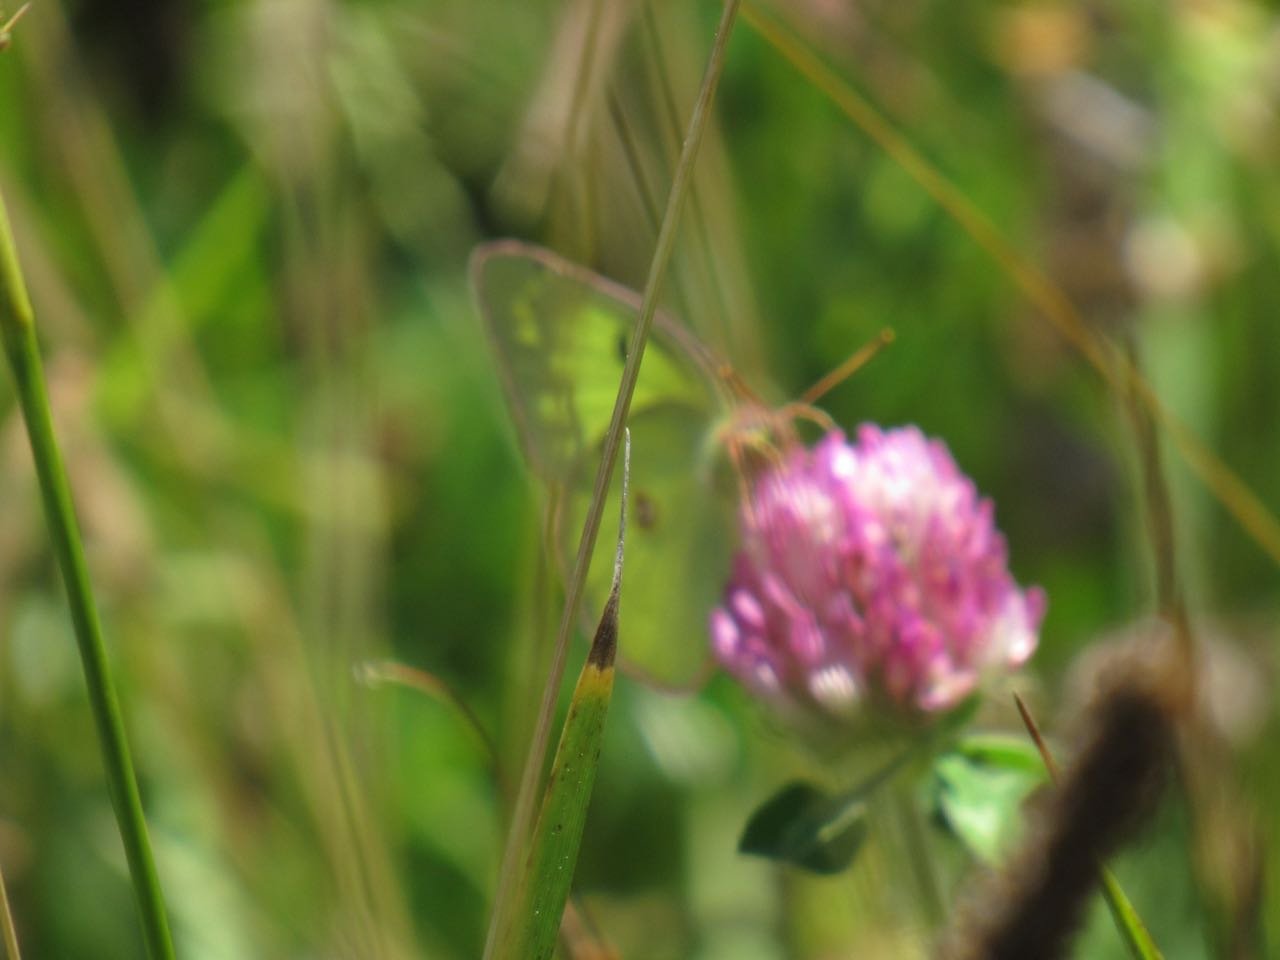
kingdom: Animalia
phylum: Arthropoda
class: Insecta
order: Lepidoptera
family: Pieridae
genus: Colias
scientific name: Colias philodice
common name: Clouded Sulphur
